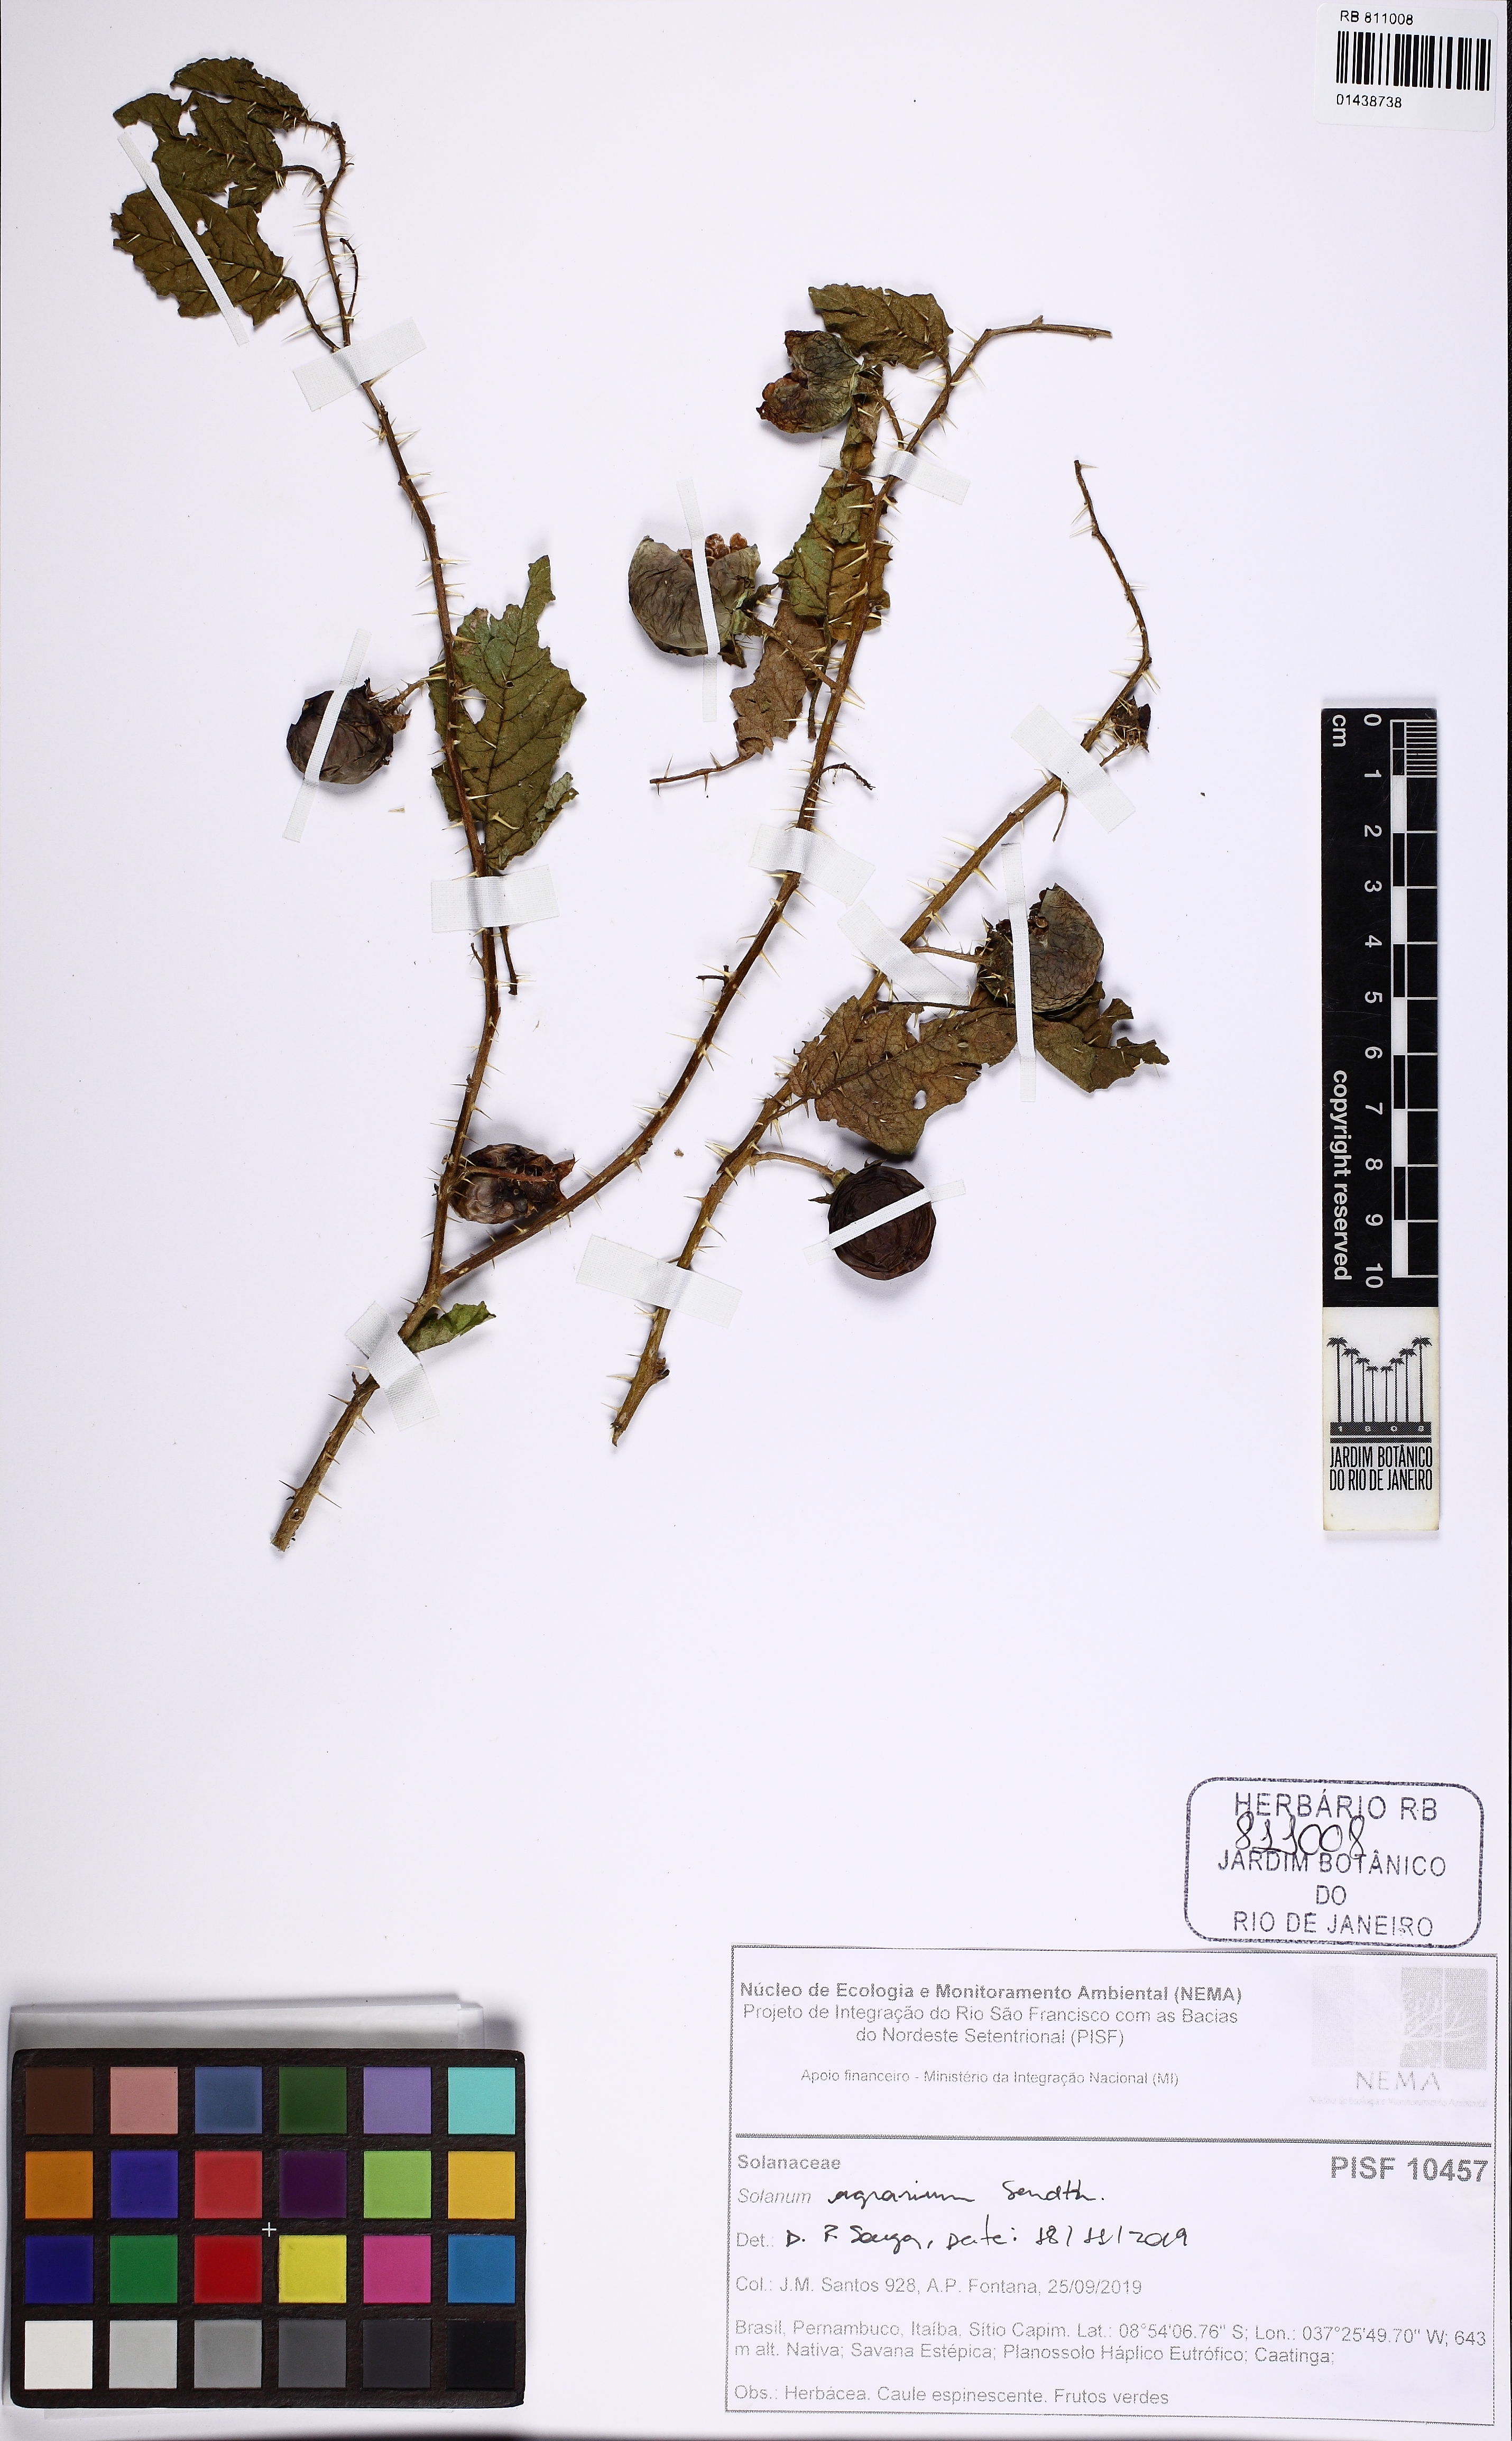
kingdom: Plantae
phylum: Tracheophyta
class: Magnoliopsida
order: Solanales
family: Solanaceae
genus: Solanum
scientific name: Solanum agrarium
